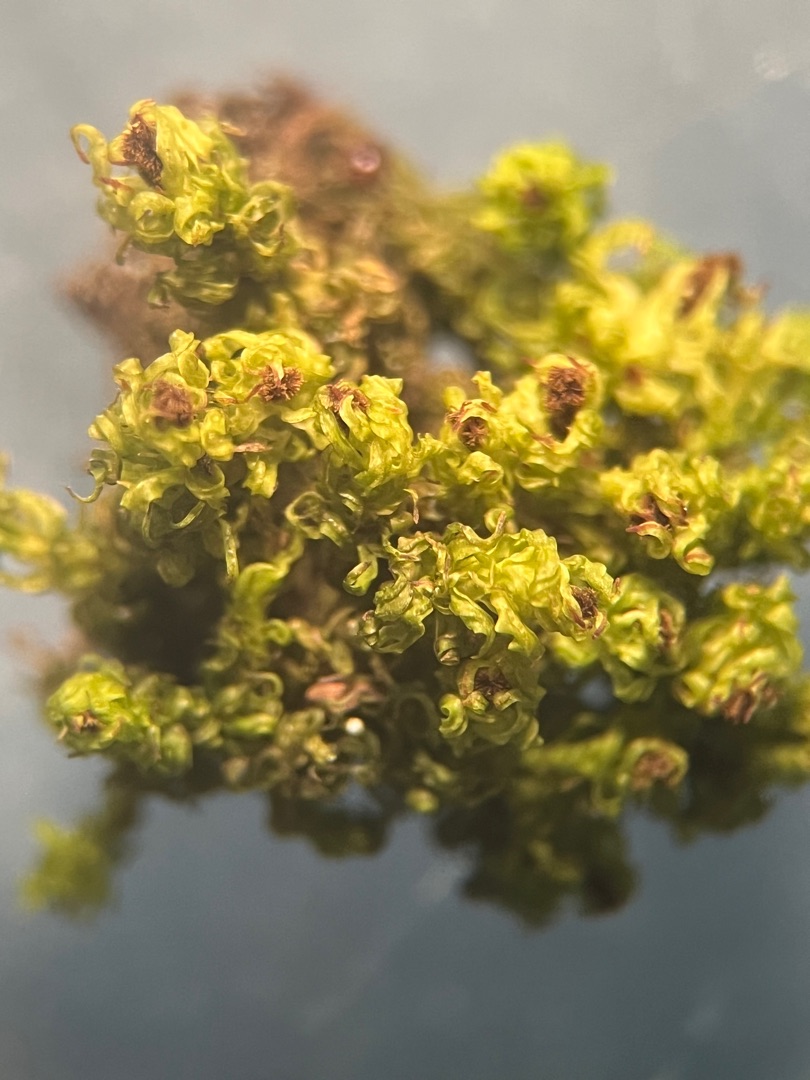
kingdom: Plantae
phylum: Bryophyta
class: Bryopsida
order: Orthotrichales
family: Orthotrichaceae
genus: Plenogemma
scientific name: Plenogemma phyllantha
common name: Stor låddenhætte
